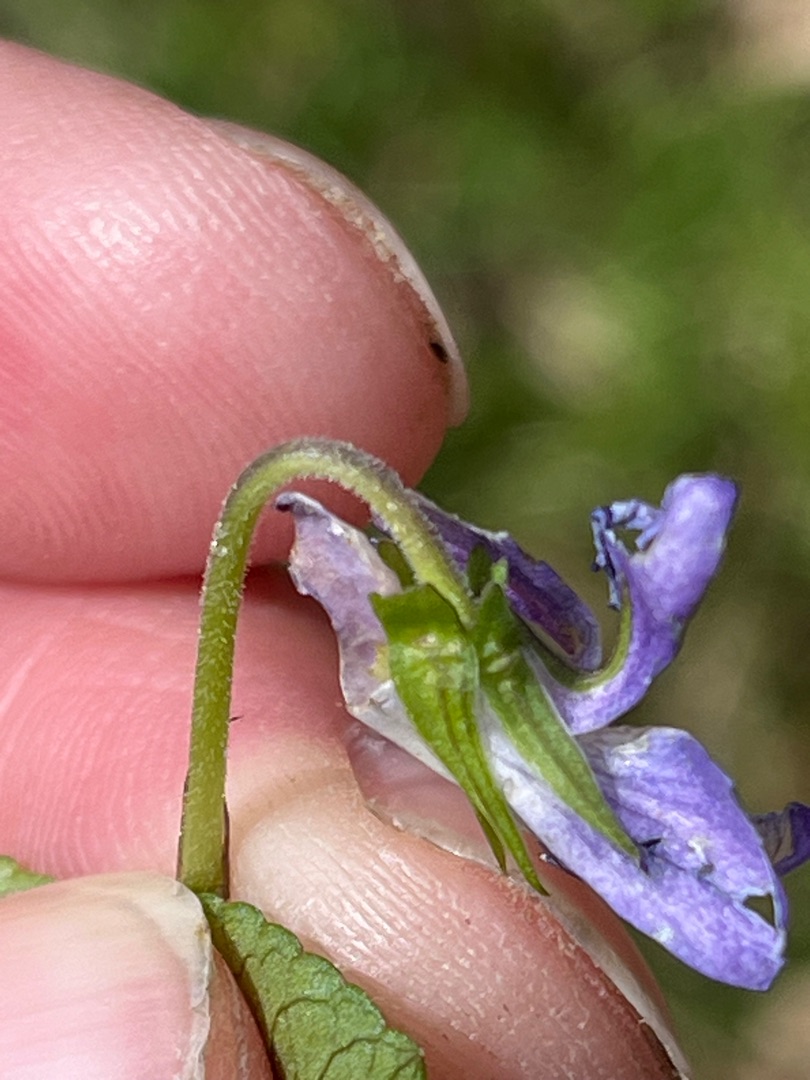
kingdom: Plantae
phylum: Tracheophyta
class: Magnoliopsida
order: Malpighiales
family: Violaceae
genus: Viola
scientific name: Viola riviniana
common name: Krat-viol
